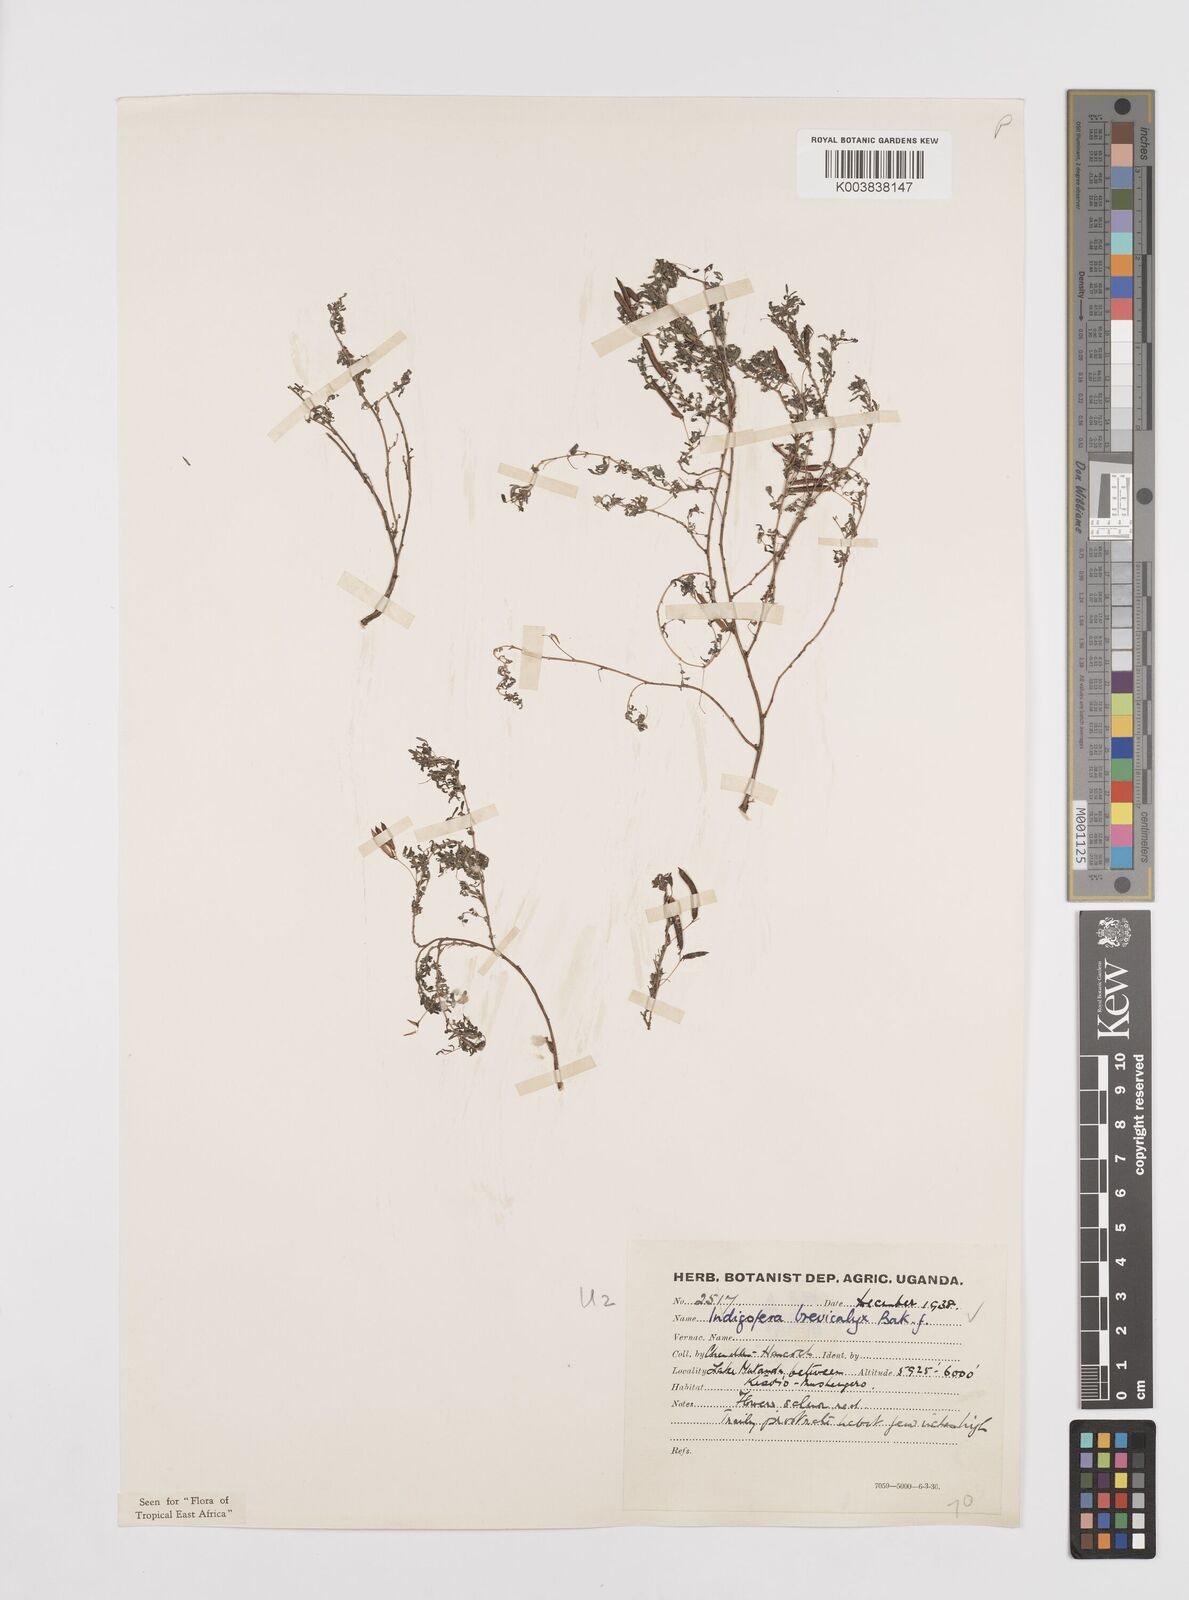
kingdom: Plantae
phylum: Tracheophyta
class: Magnoliopsida
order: Fabales
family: Fabaceae
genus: Indigofera
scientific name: Indigofera brevicalyx
